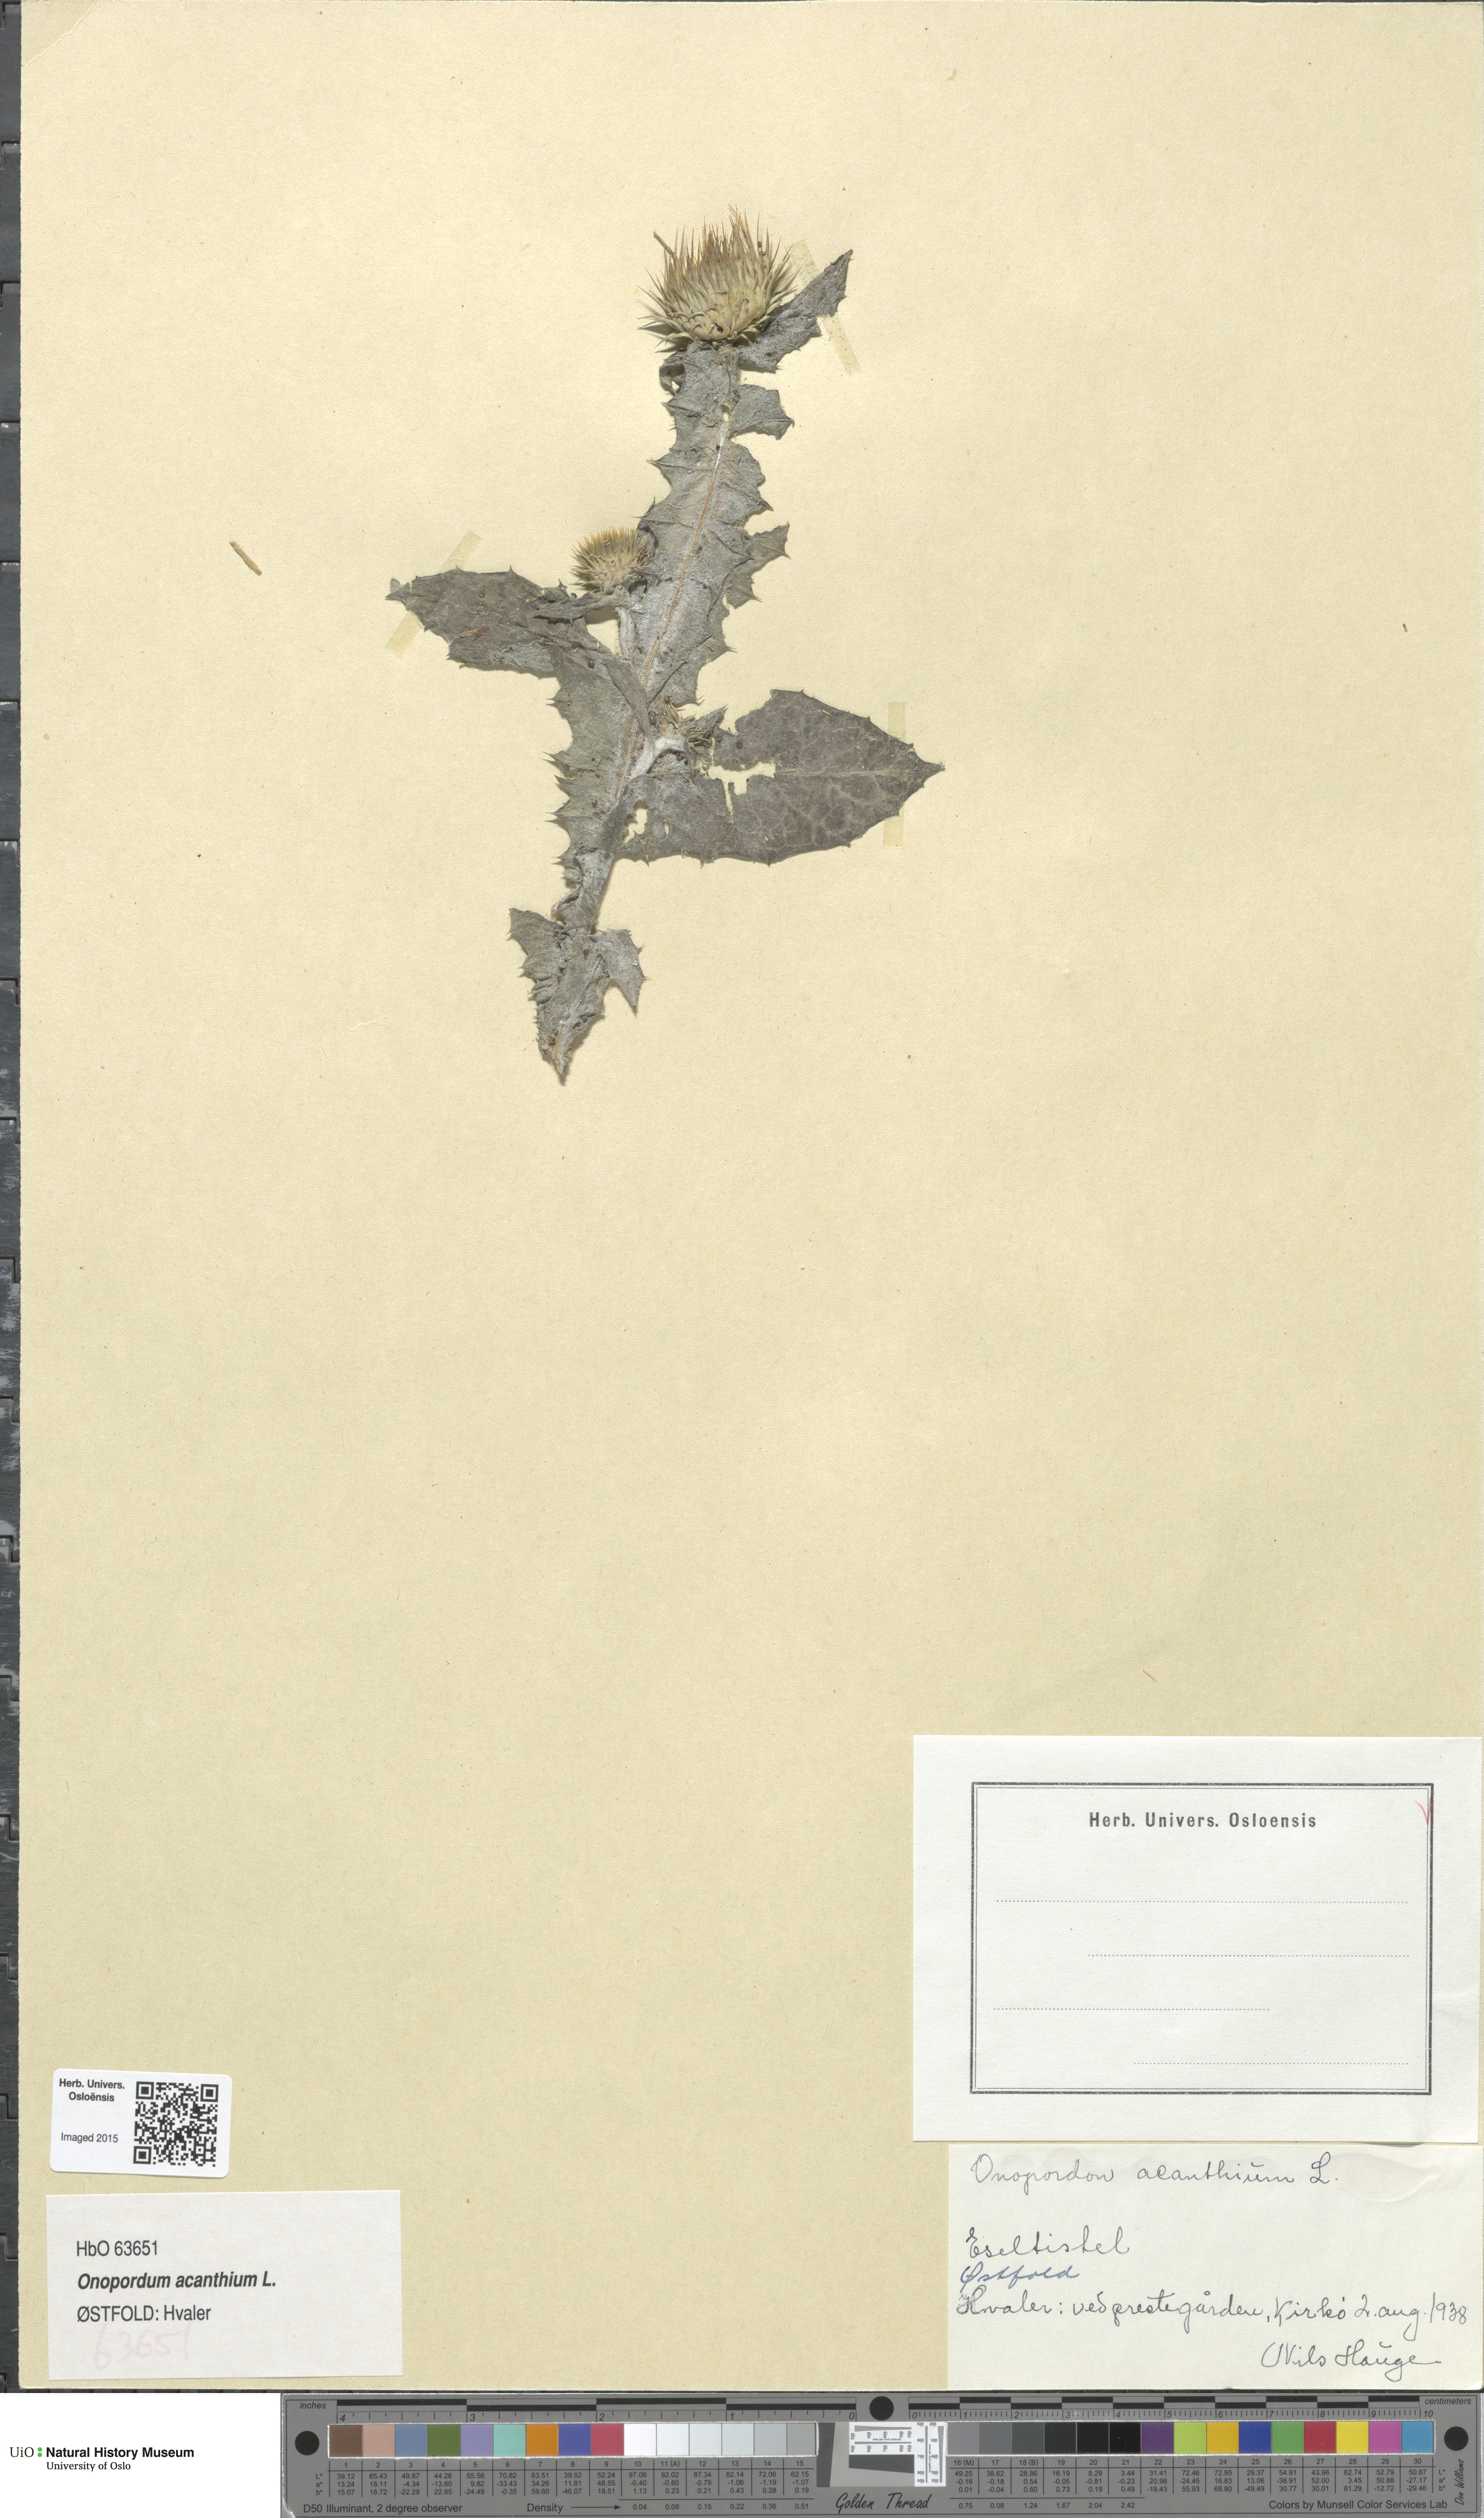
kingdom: Plantae
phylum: Tracheophyta
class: Magnoliopsida
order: Asterales
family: Asteraceae
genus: Onopordum
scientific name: Onopordum acanthium
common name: Scotch thistle
